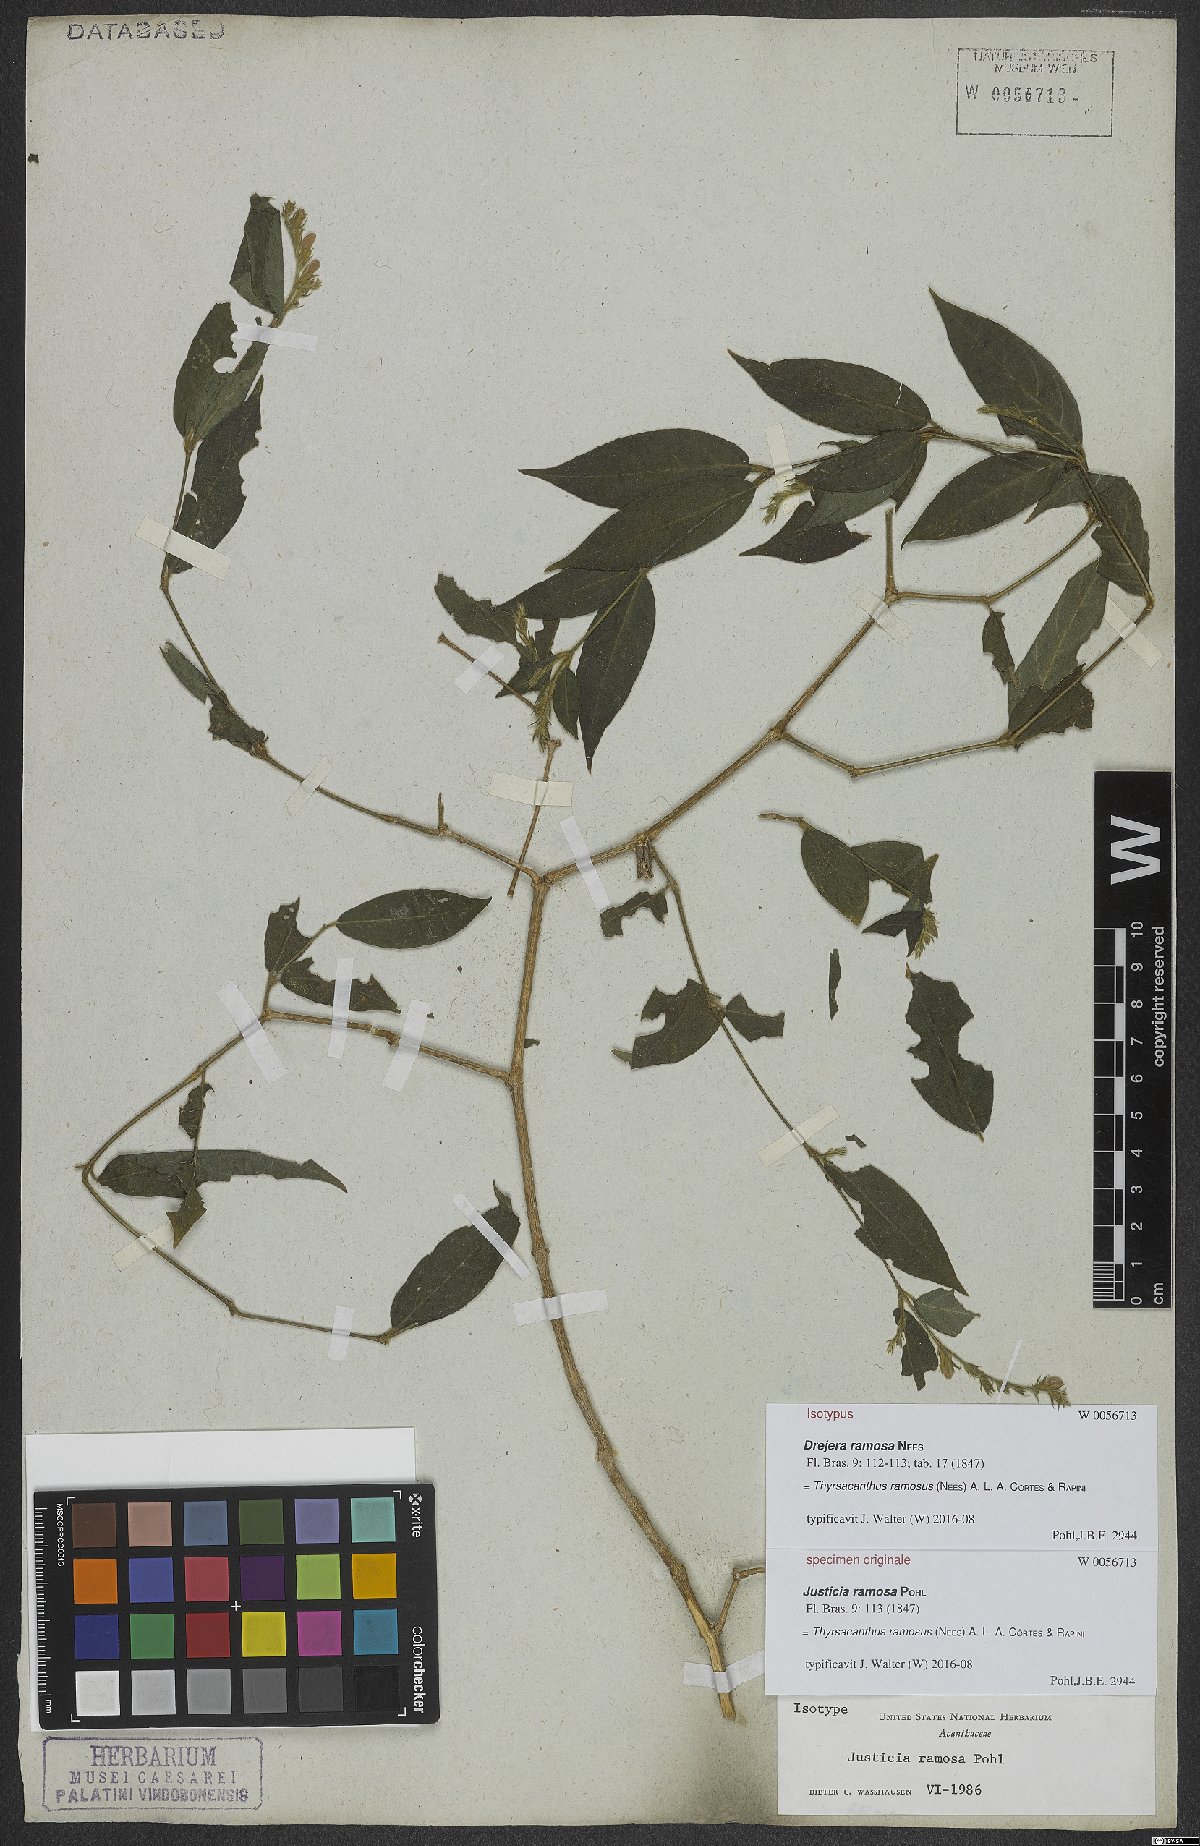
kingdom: Plantae
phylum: Tracheophyta
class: Magnoliopsida
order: Lamiales
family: Acanthaceae
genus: Thyrsacanthus
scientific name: Thyrsacanthus ramosus
